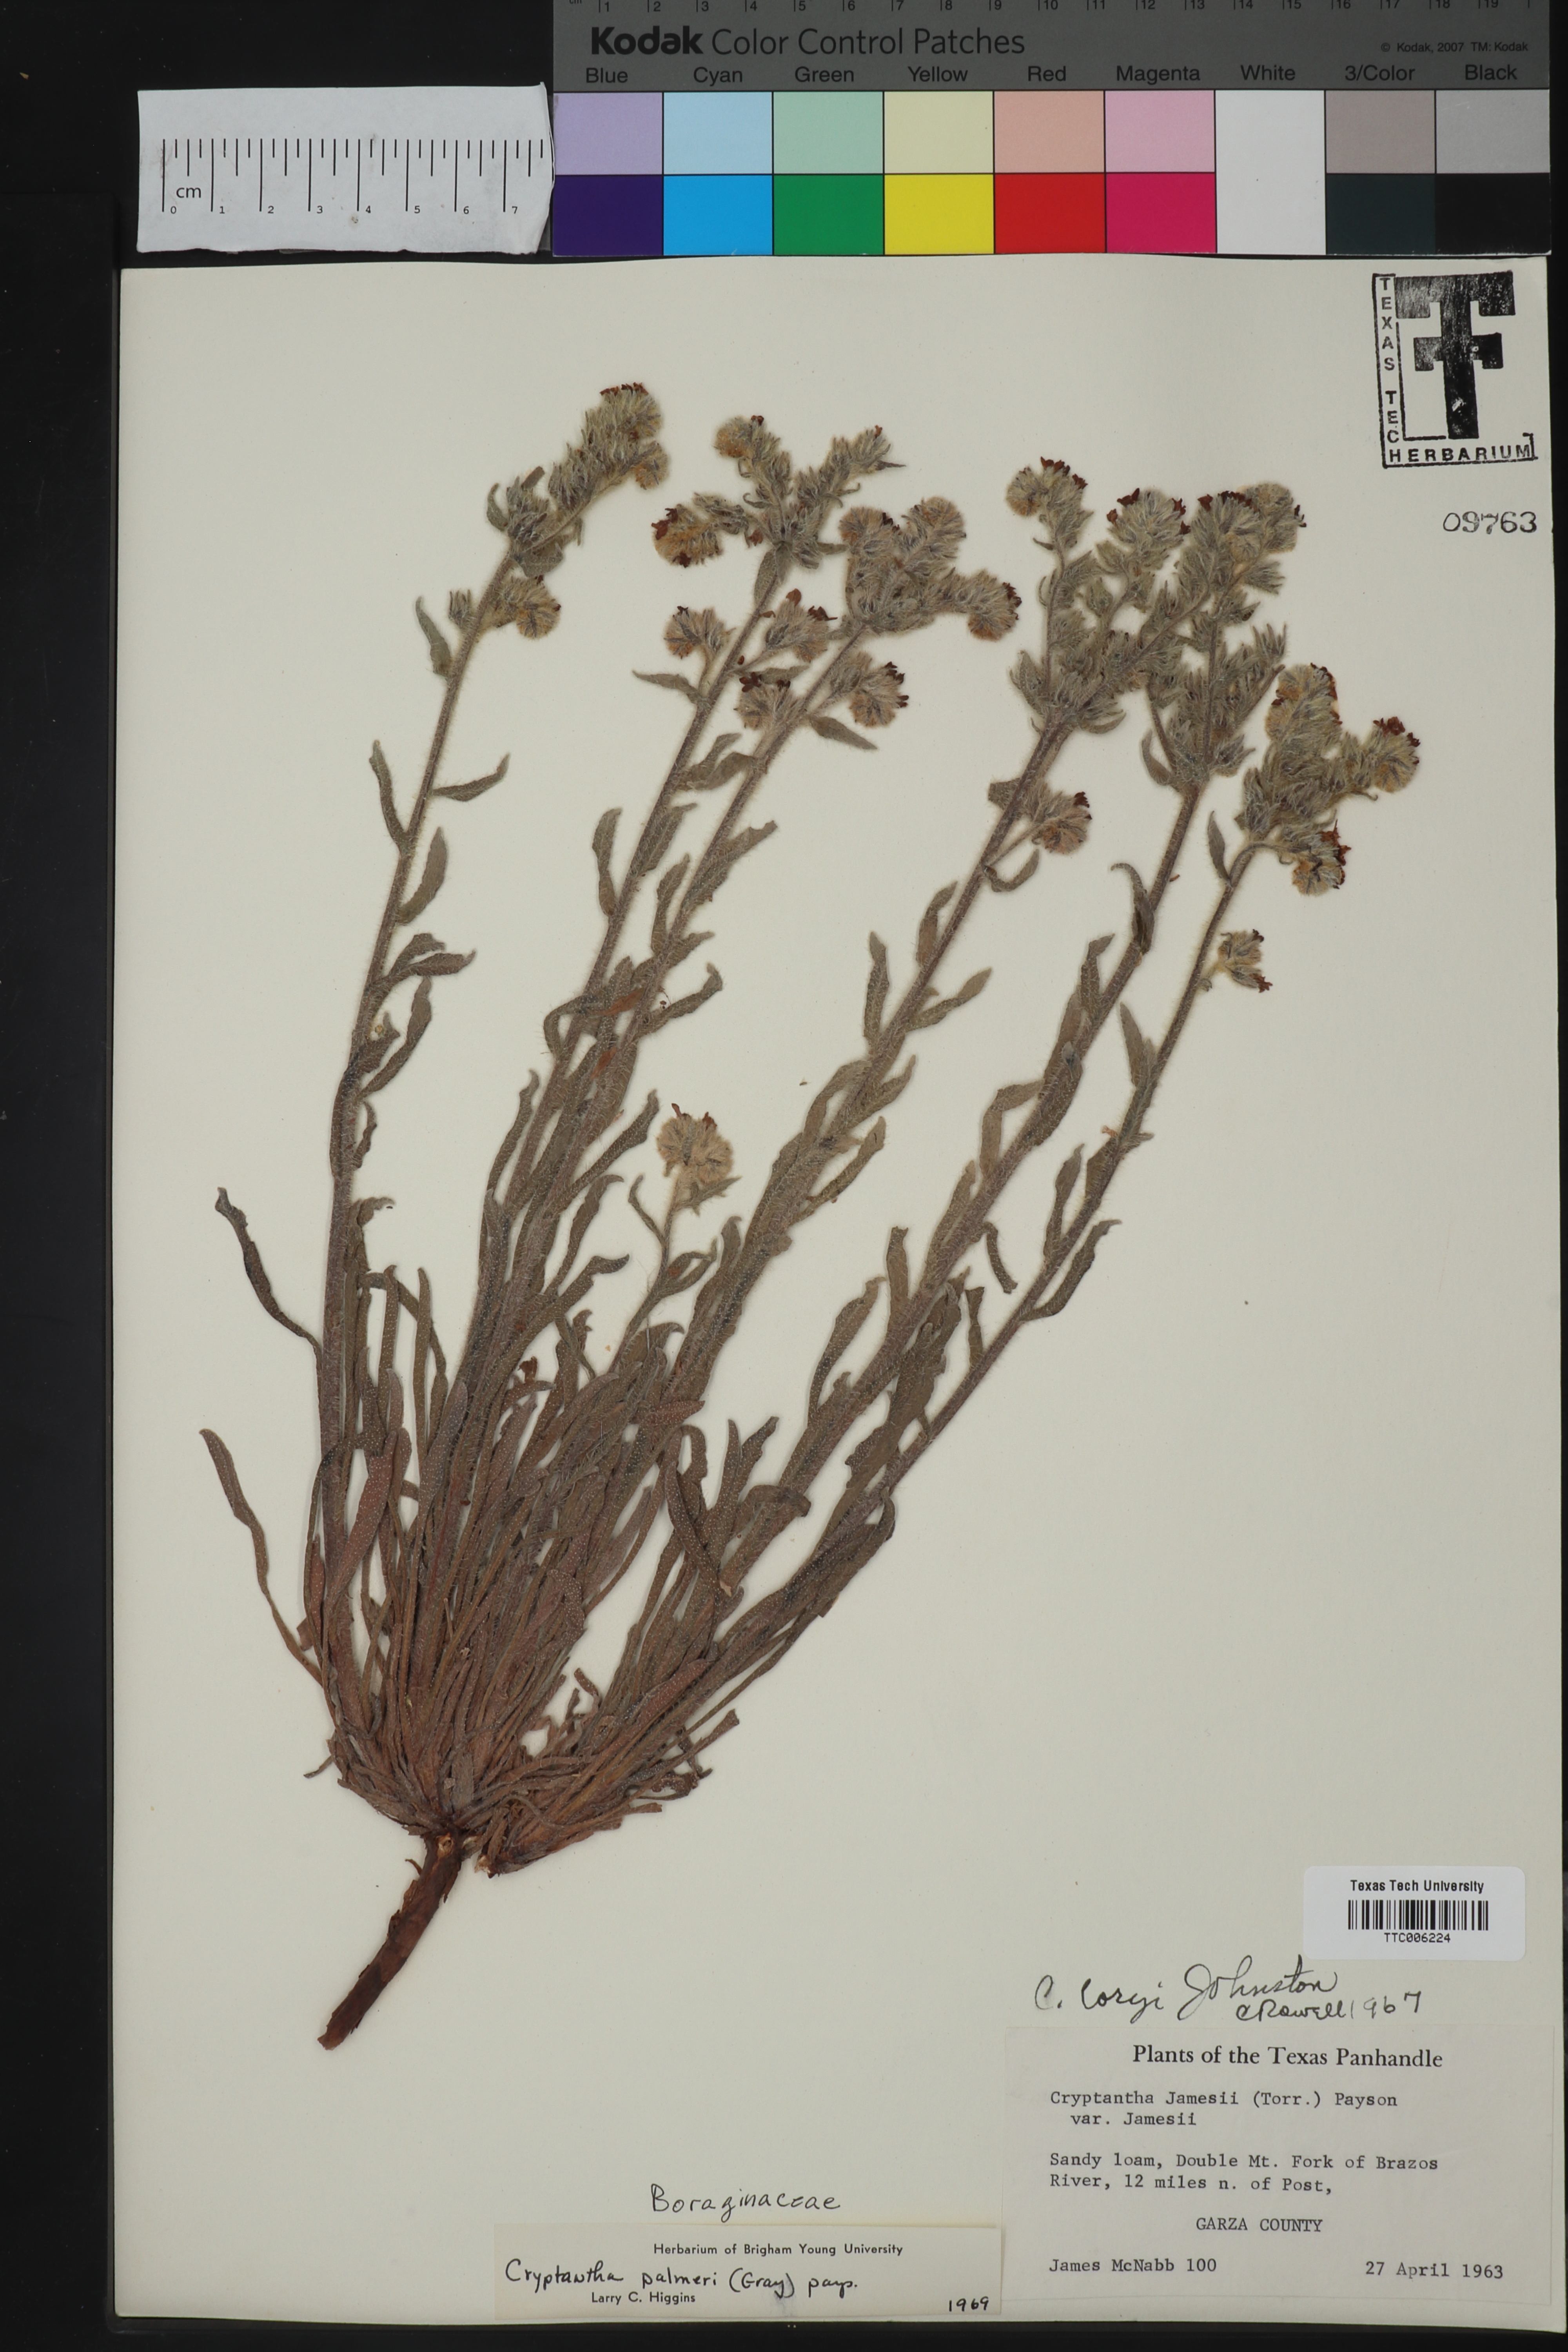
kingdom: Plantae
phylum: Tracheophyta
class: Magnoliopsida
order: Boraginales
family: Boraginaceae
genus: Oreocarya
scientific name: Oreocarya palmeri
